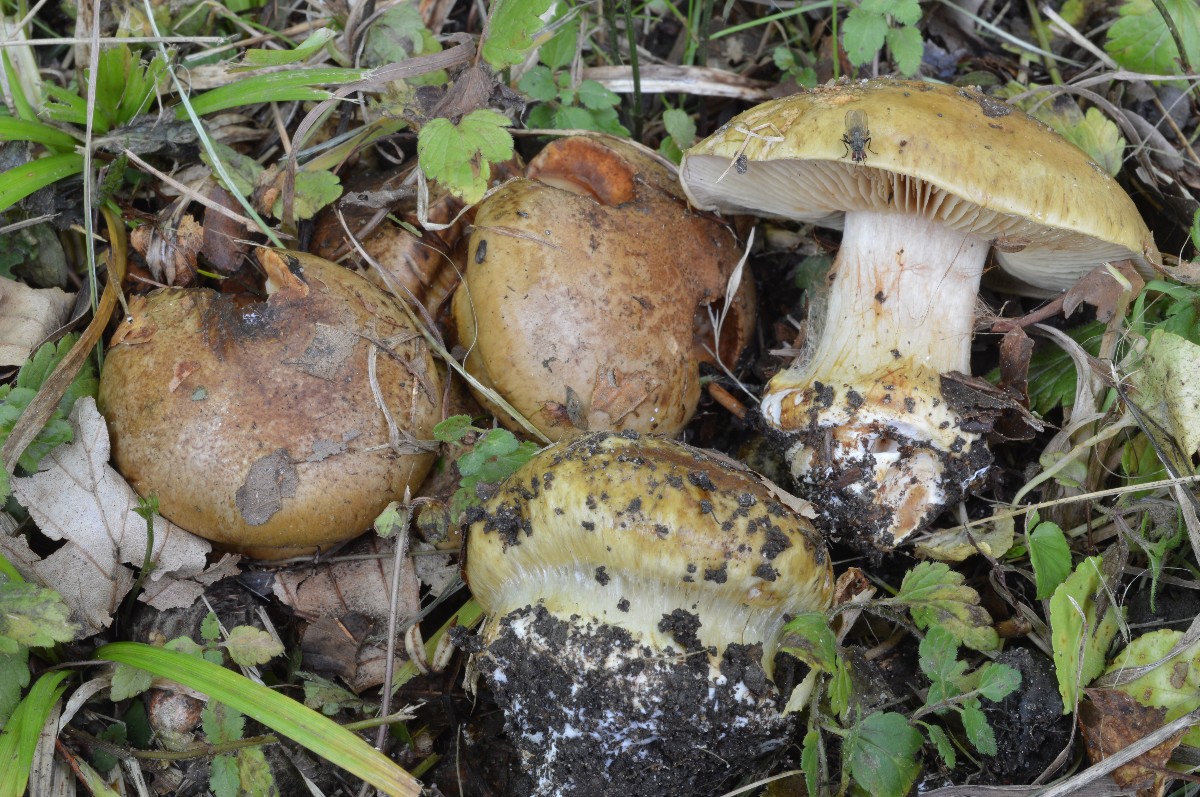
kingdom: Fungi
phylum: Basidiomycota
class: Agaricomycetes
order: Agaricales
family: Cortinariaceae
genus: Calonarius
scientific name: Calonarius flavovirens
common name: mel-slørhat
